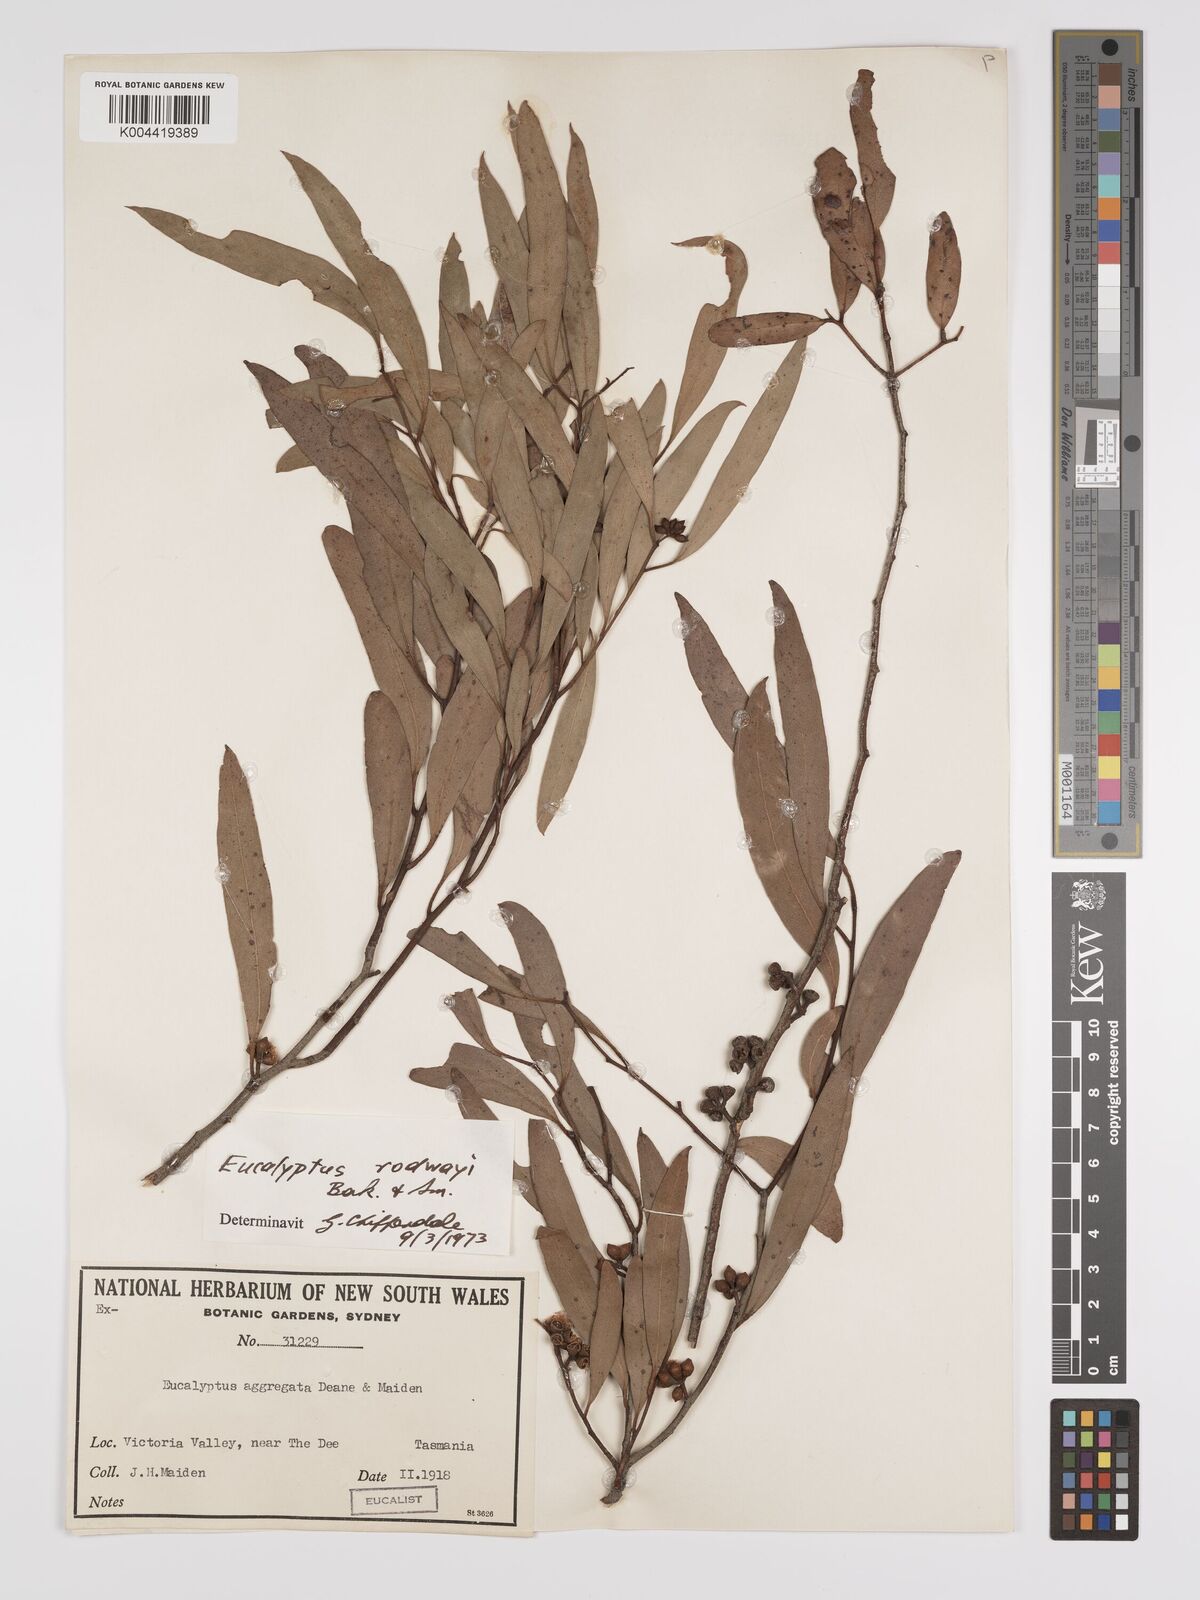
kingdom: Plantae
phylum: Tracheophyta
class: Magnoliopsida
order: Myrtales
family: Myrtaceae
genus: Eucalyptus
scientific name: Eucalyptus rodwayi
